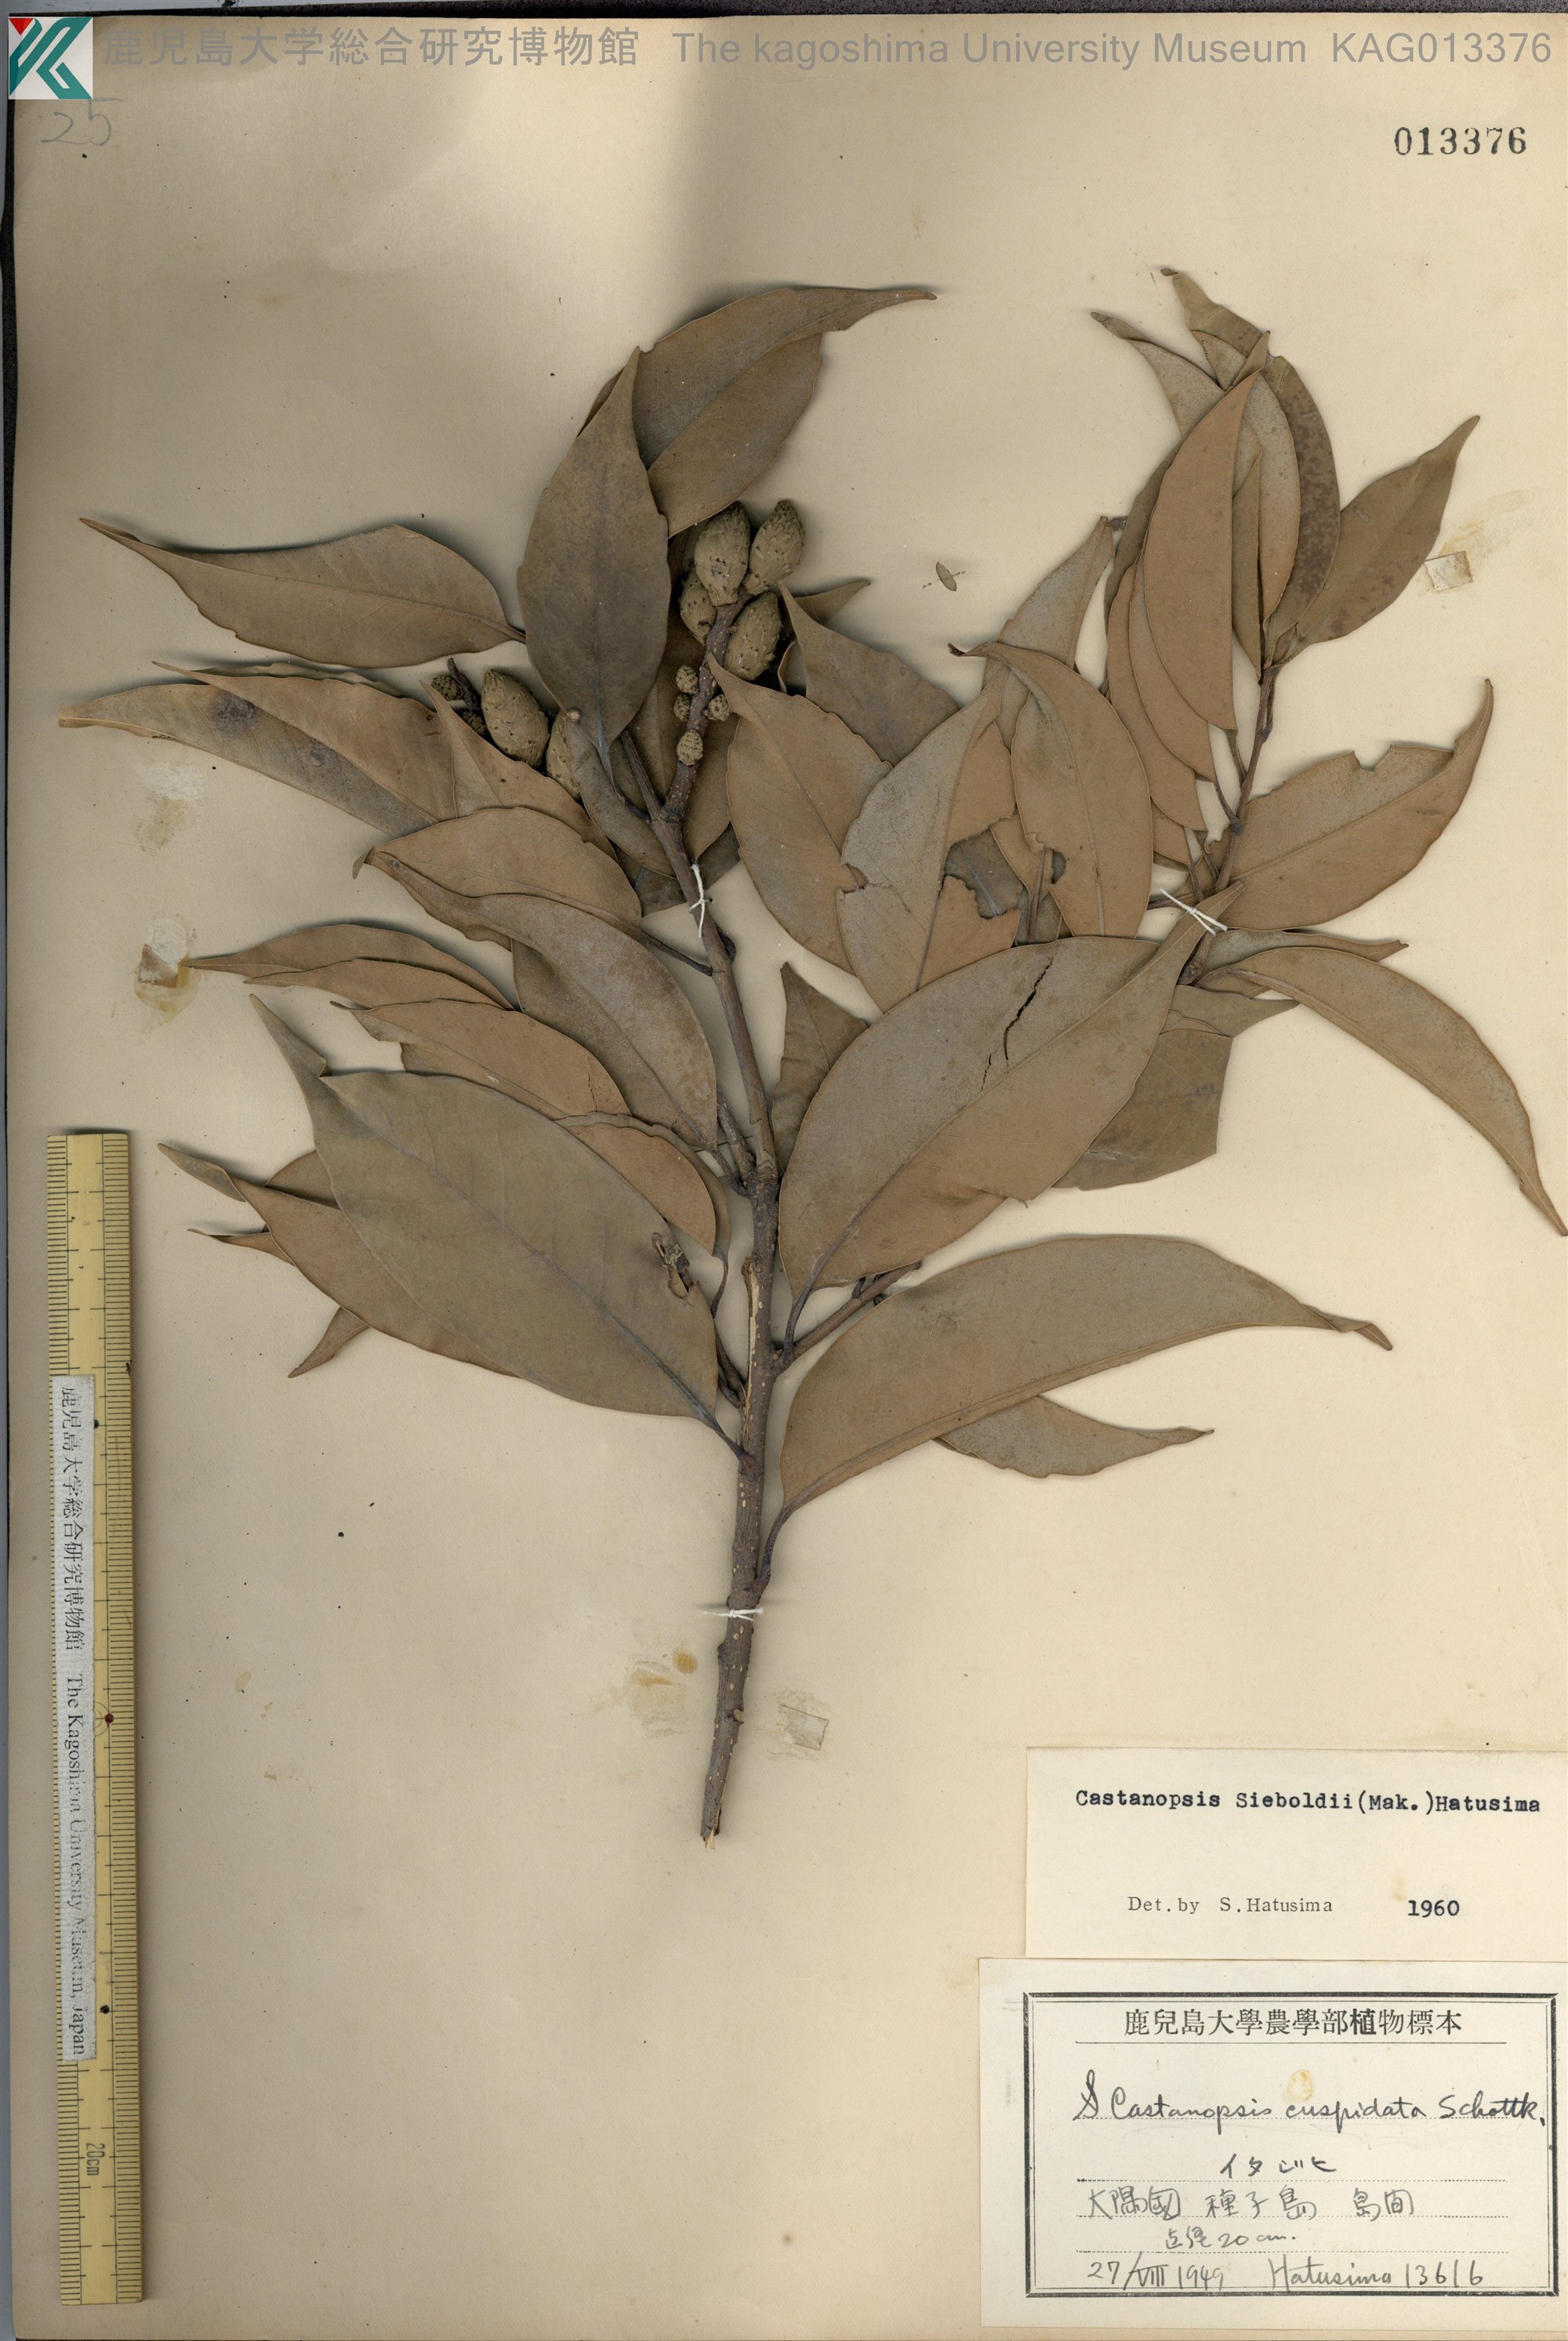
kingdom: Plantae
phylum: Tracheophyta
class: Magnoliopsida
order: Fagales
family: Fagaceae
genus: Castanopsis
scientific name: Castanopsis sieboldii
